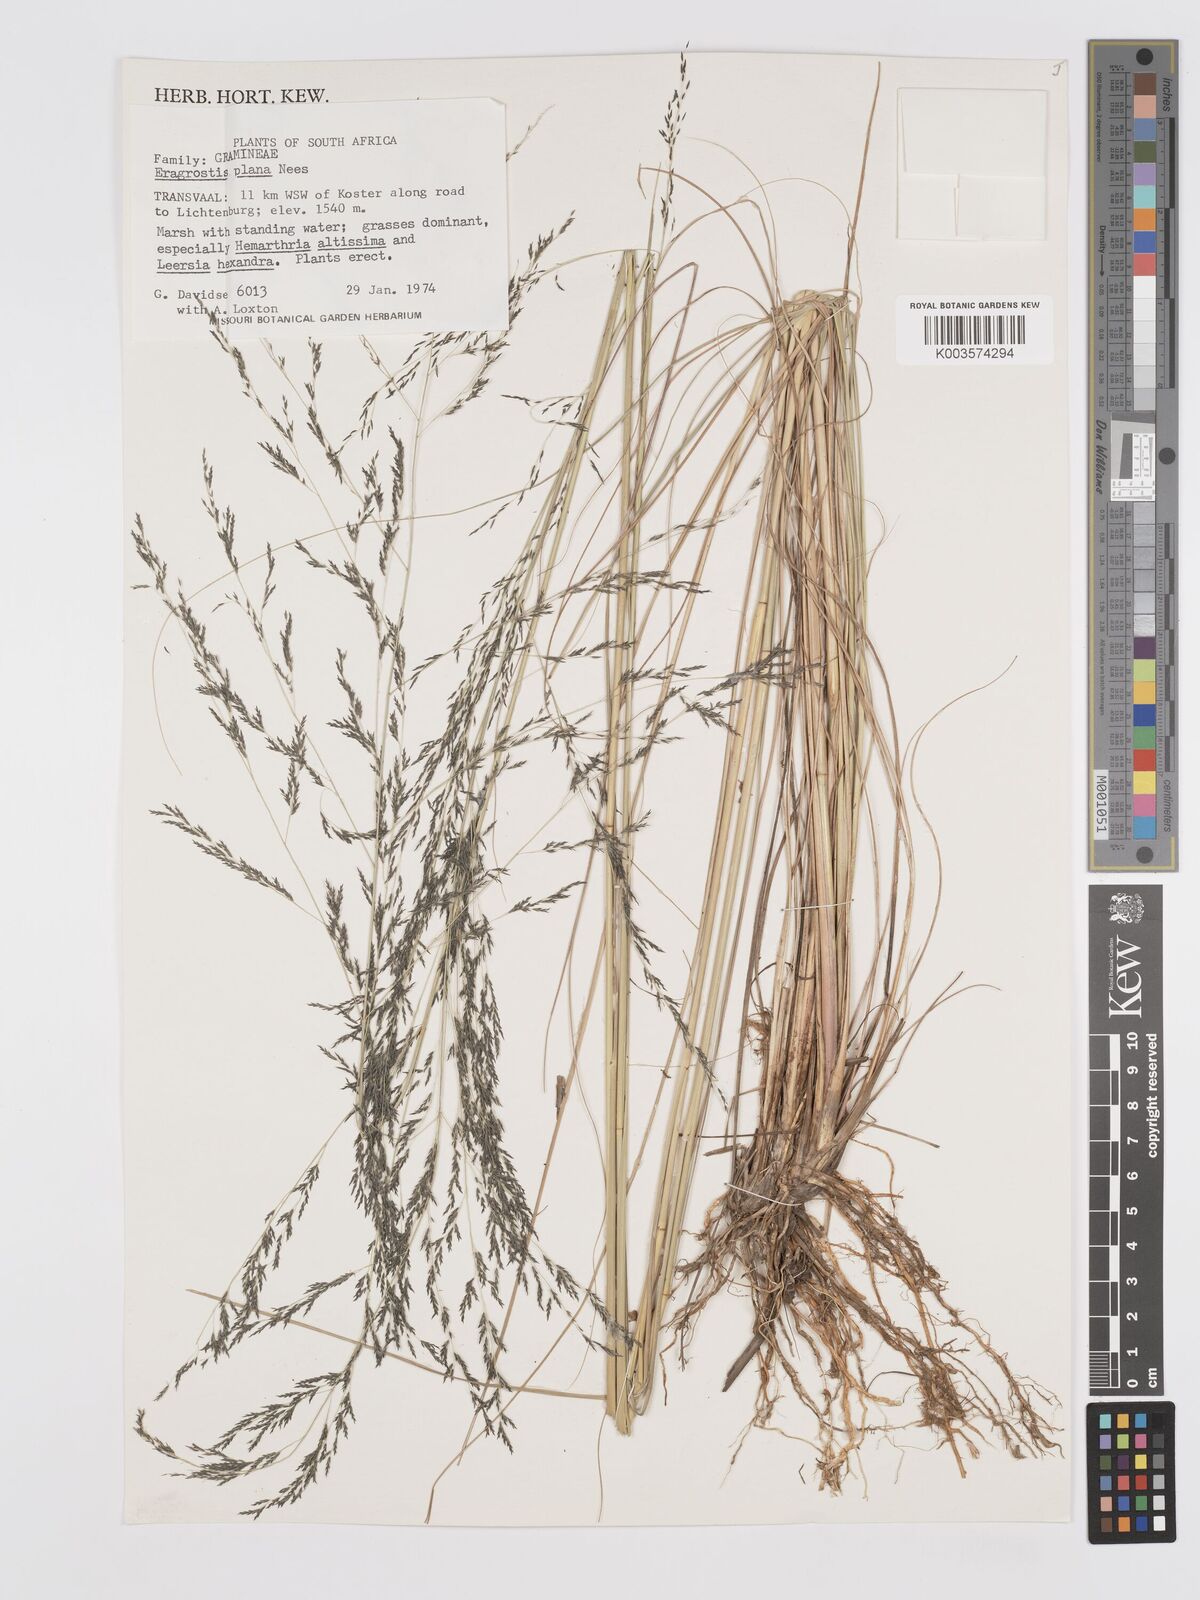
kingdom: Plantae
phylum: Tracheophyta
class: Liliopsida
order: Poales
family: Poaceae
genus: Eragrostis
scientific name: Eragrostis plana
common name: South african lovegrass
